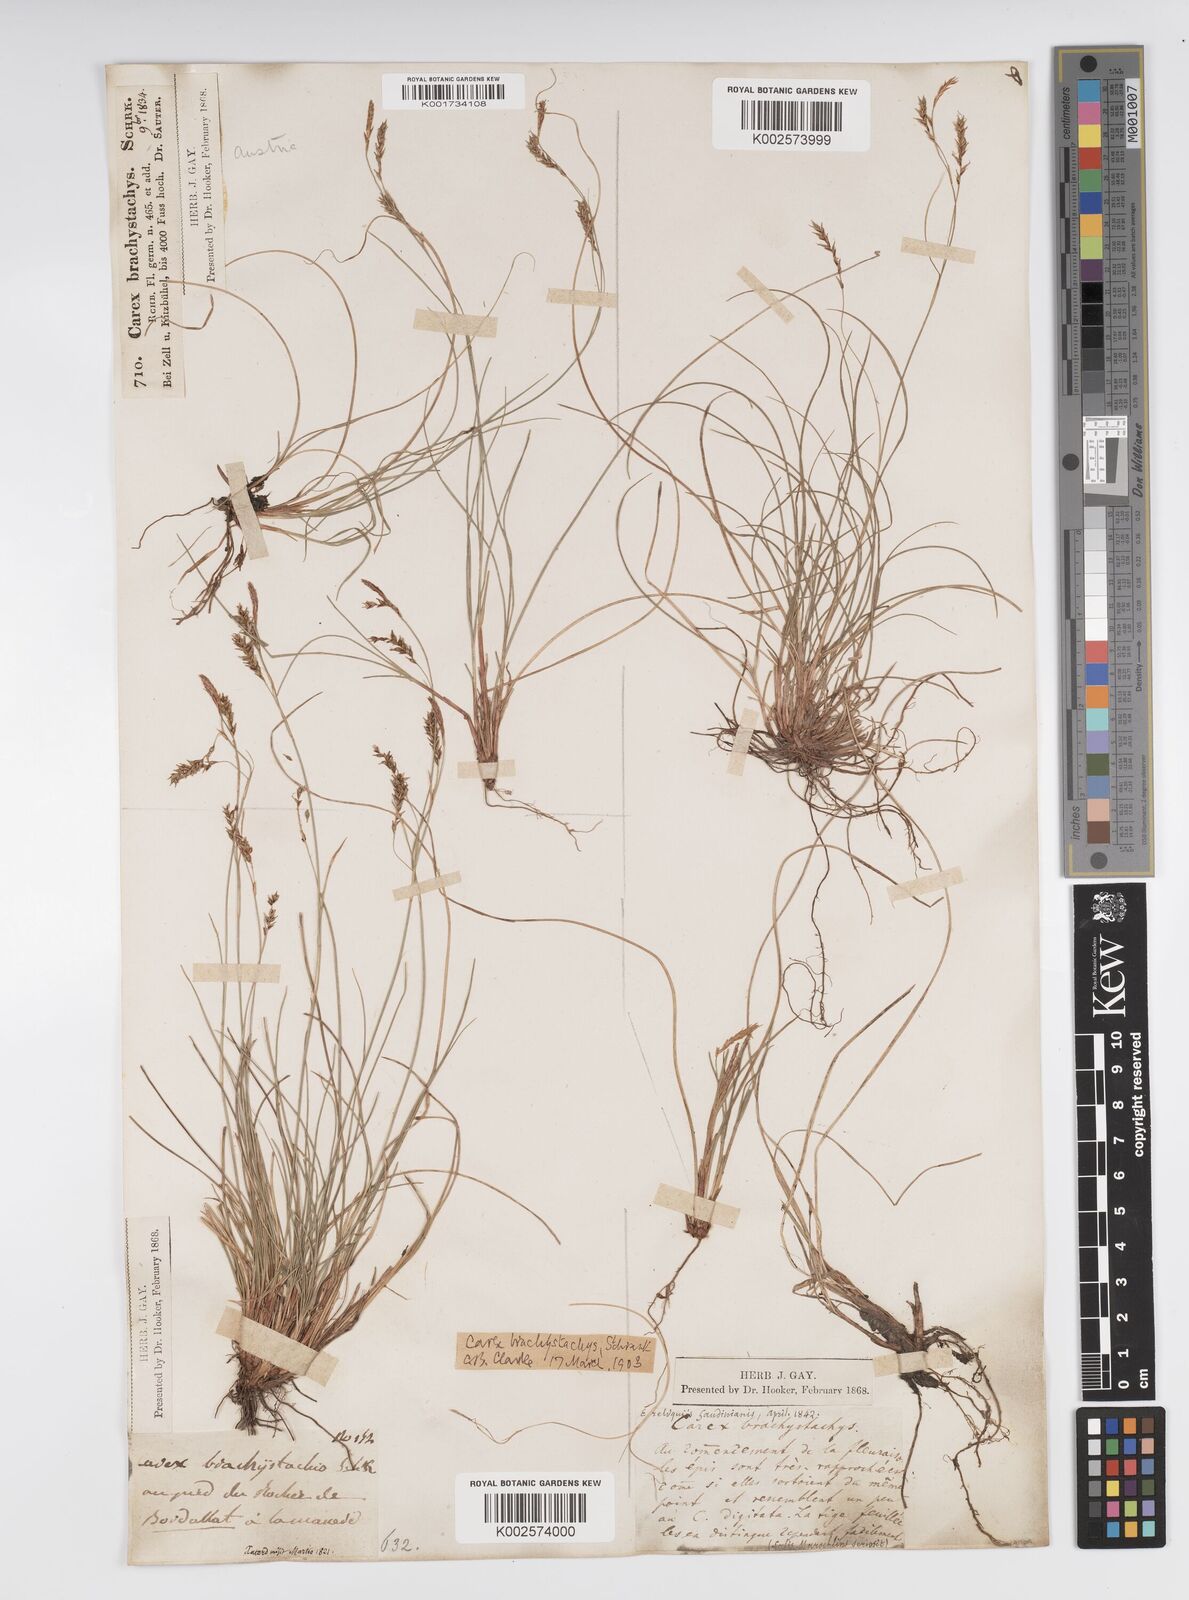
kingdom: Plantae
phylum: Tracheophyta
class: Liliopsida
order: Poales
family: Cyperaceae
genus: Carex
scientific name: Carex brachystachys
